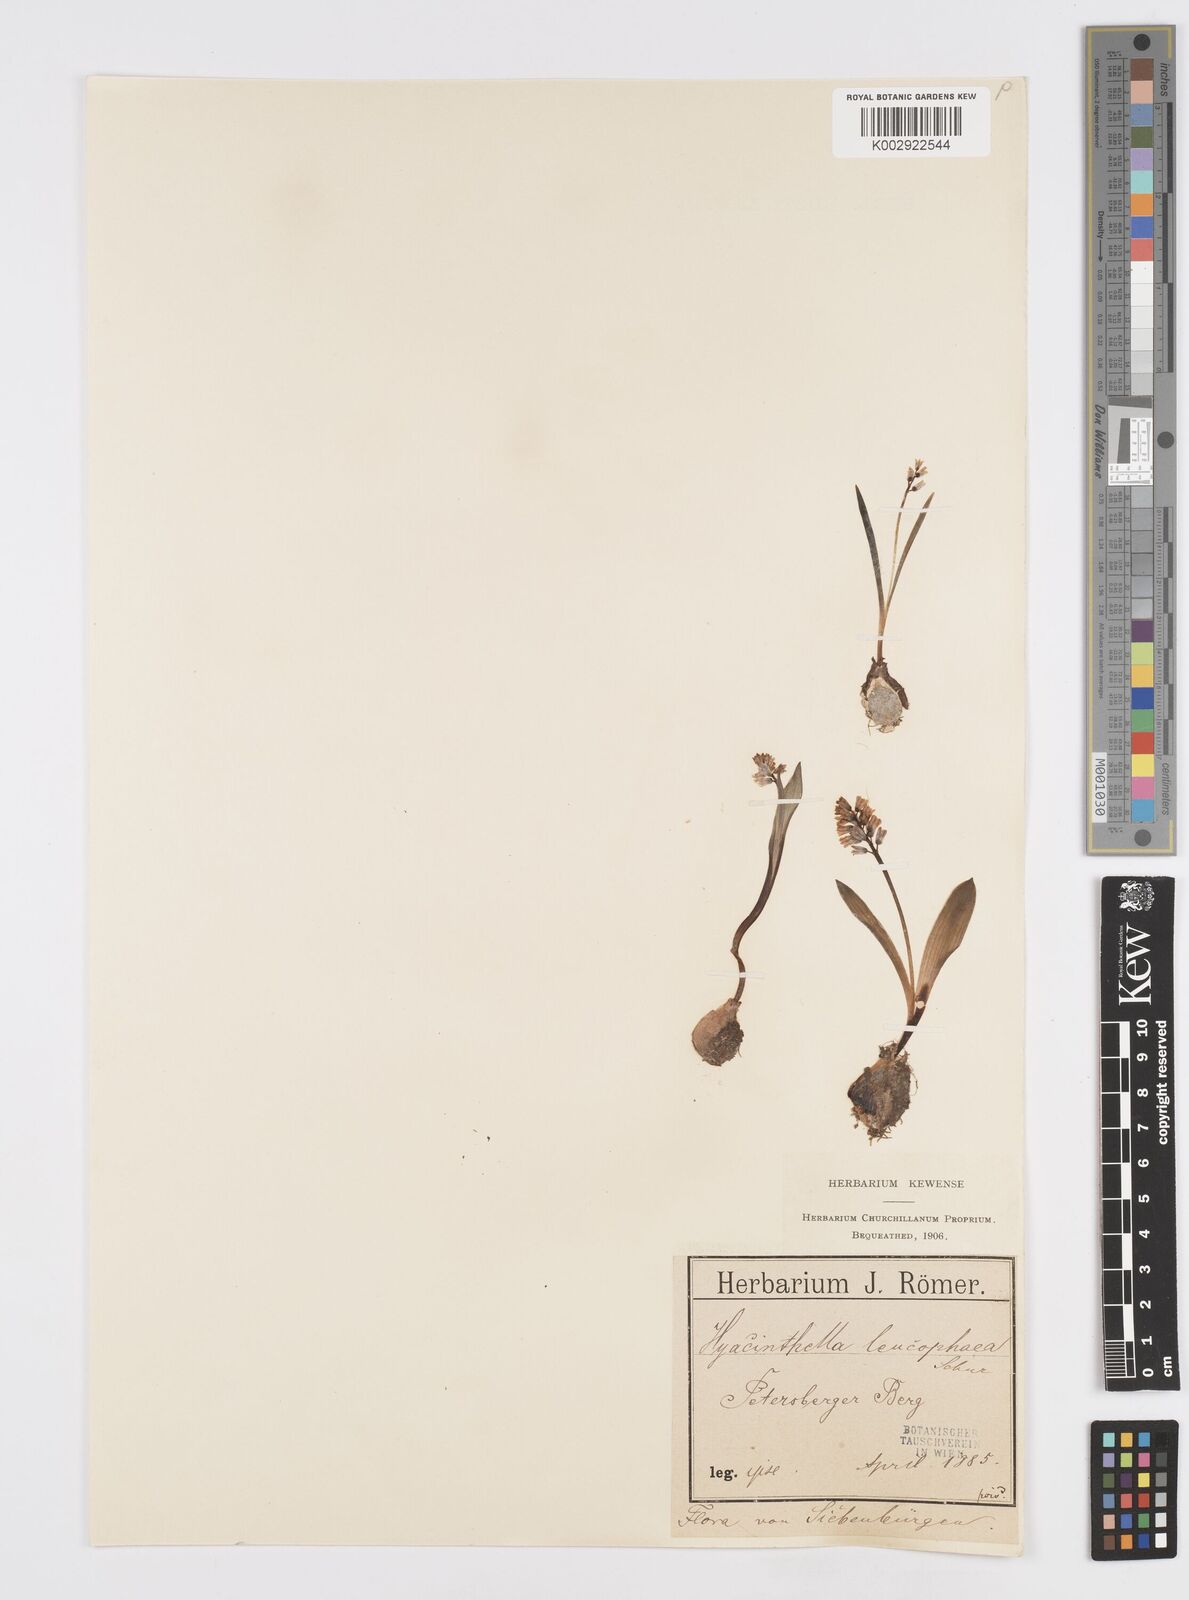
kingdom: Plantae
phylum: Tracheophyta
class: Liliopsida
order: Asparagales
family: Asparagaceae
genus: Hyacinthella
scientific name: Hyacinthella leucophaea
